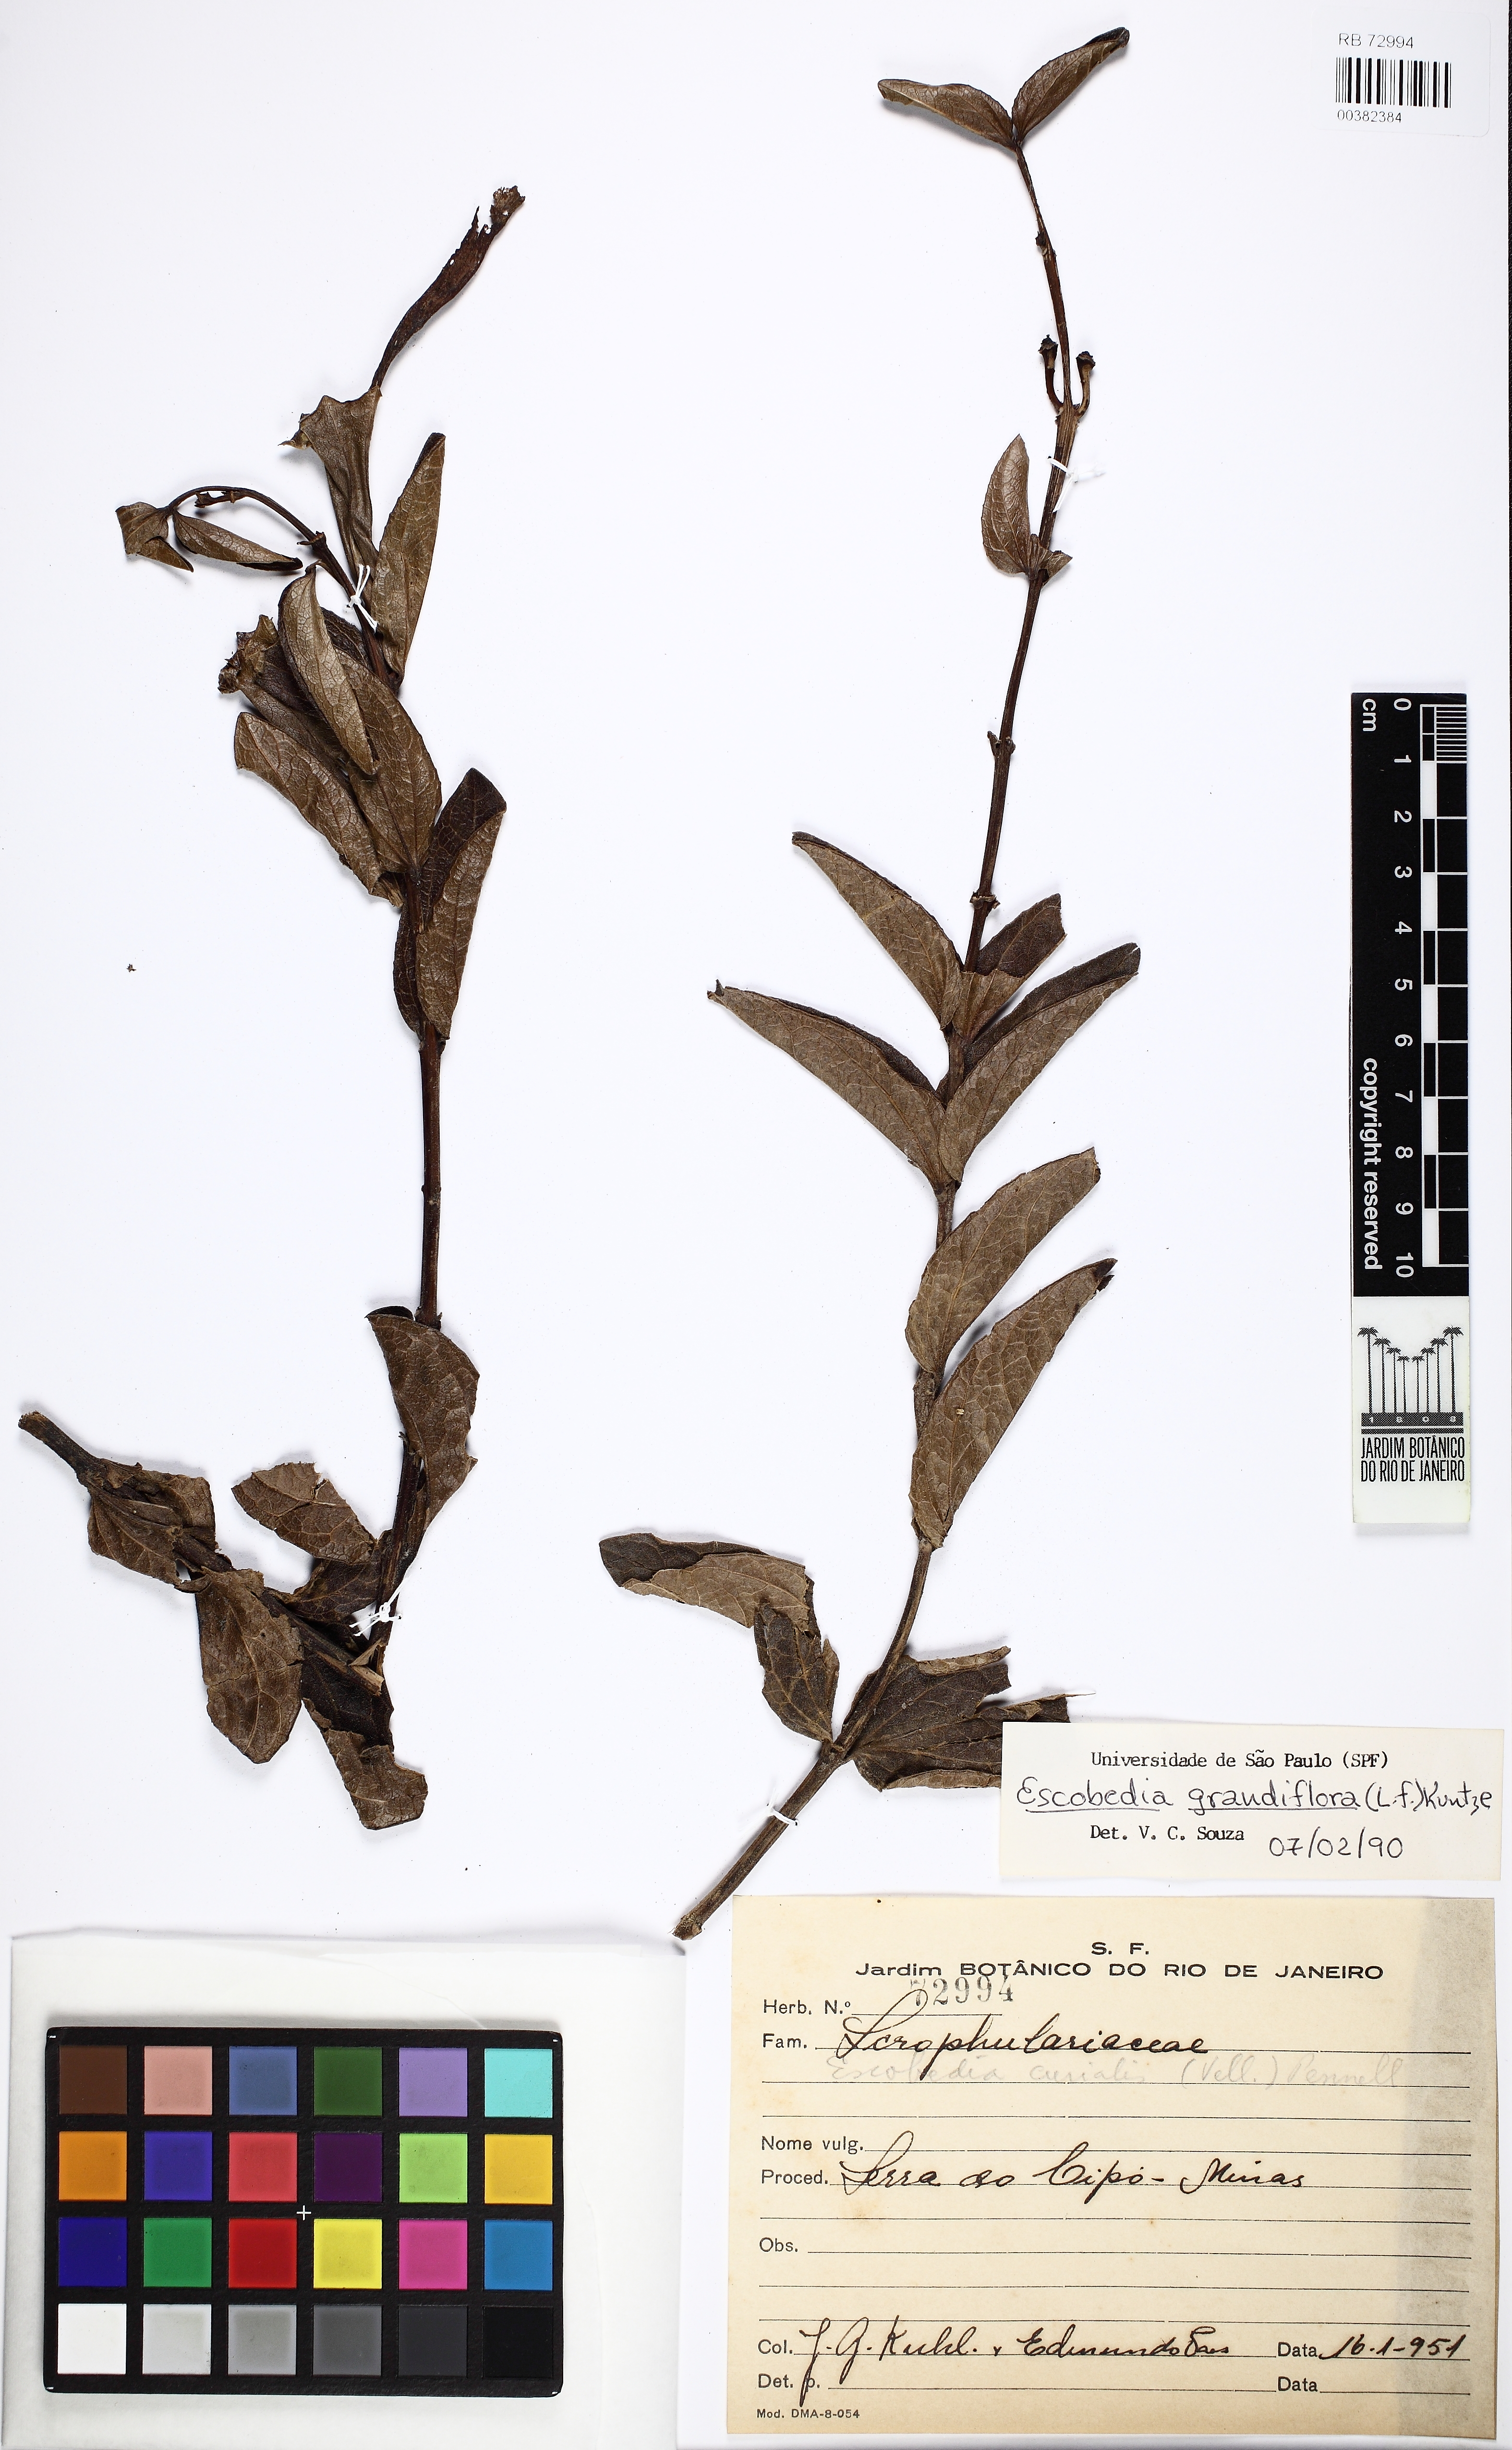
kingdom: Plantae
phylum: Tracheophyta
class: Magnoliopsida
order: Lamiales
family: Orobanchaceae
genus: Escobedia
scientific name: Escobedia grandiflora
